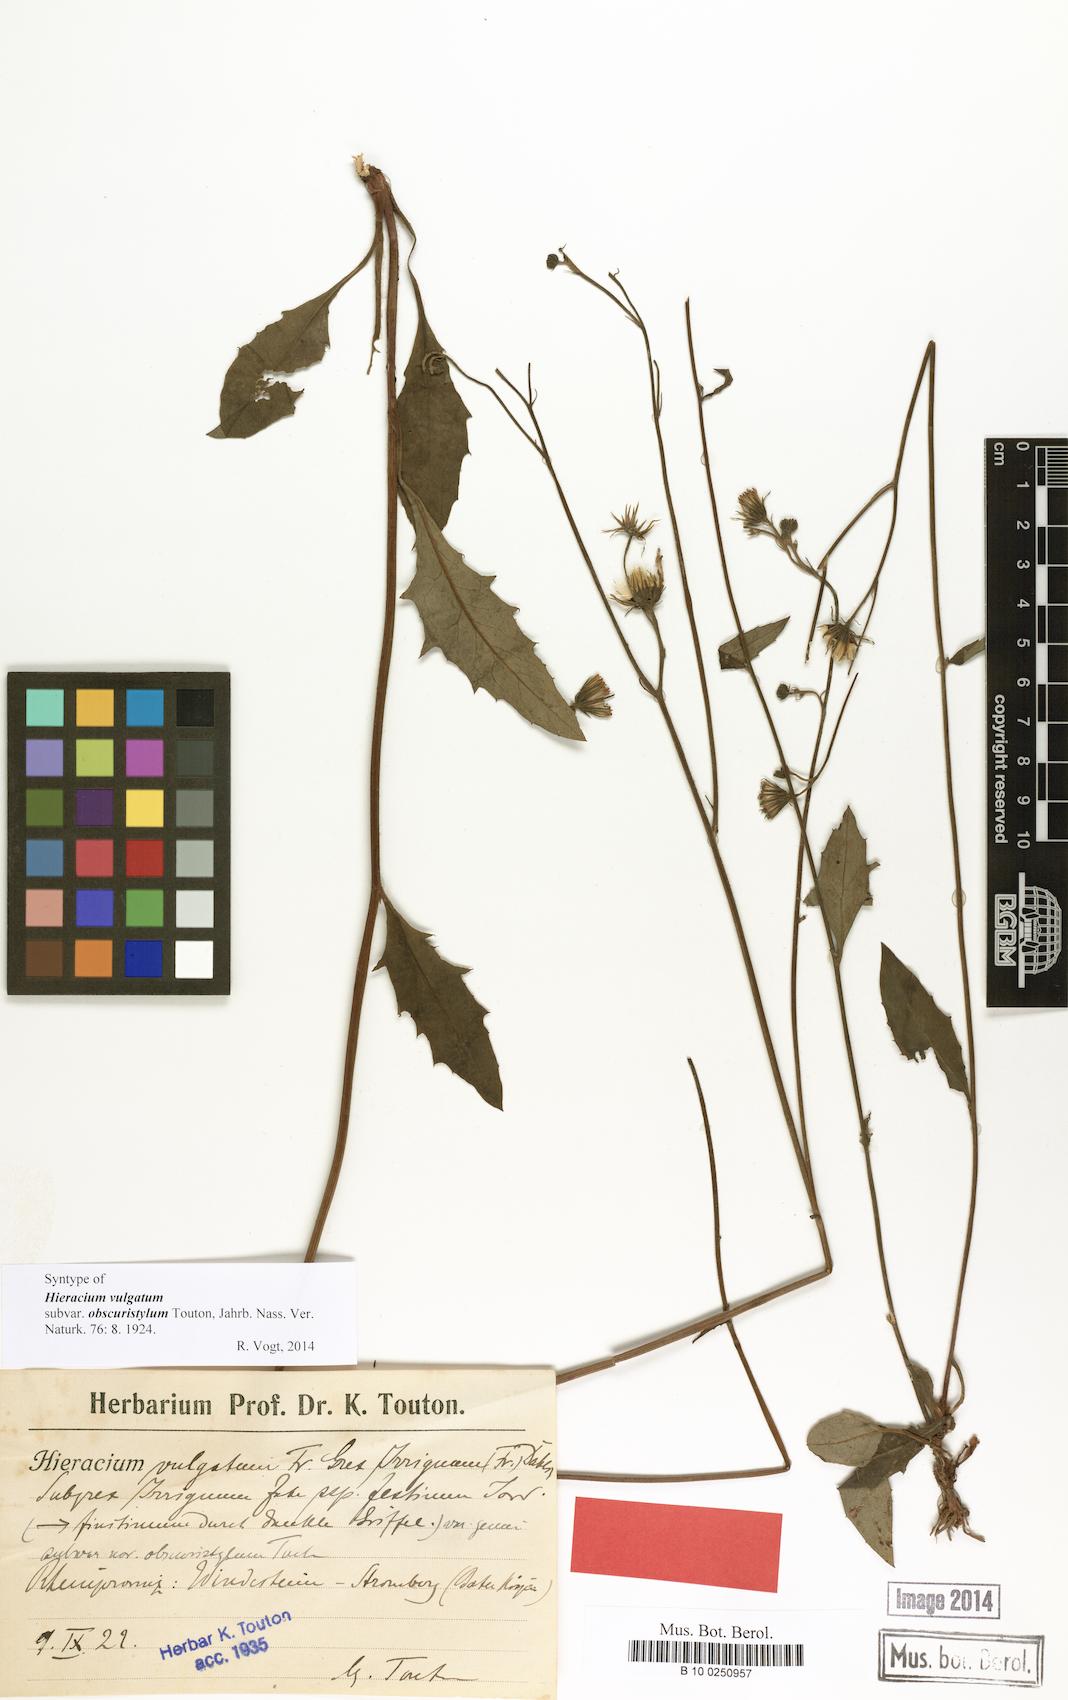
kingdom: Plantae
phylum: Tracheophyta
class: Magnoliopsida
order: Asterales
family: Asteraceae
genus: Hieracium
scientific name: Hieracium vulgatum
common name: Common hawkweed
